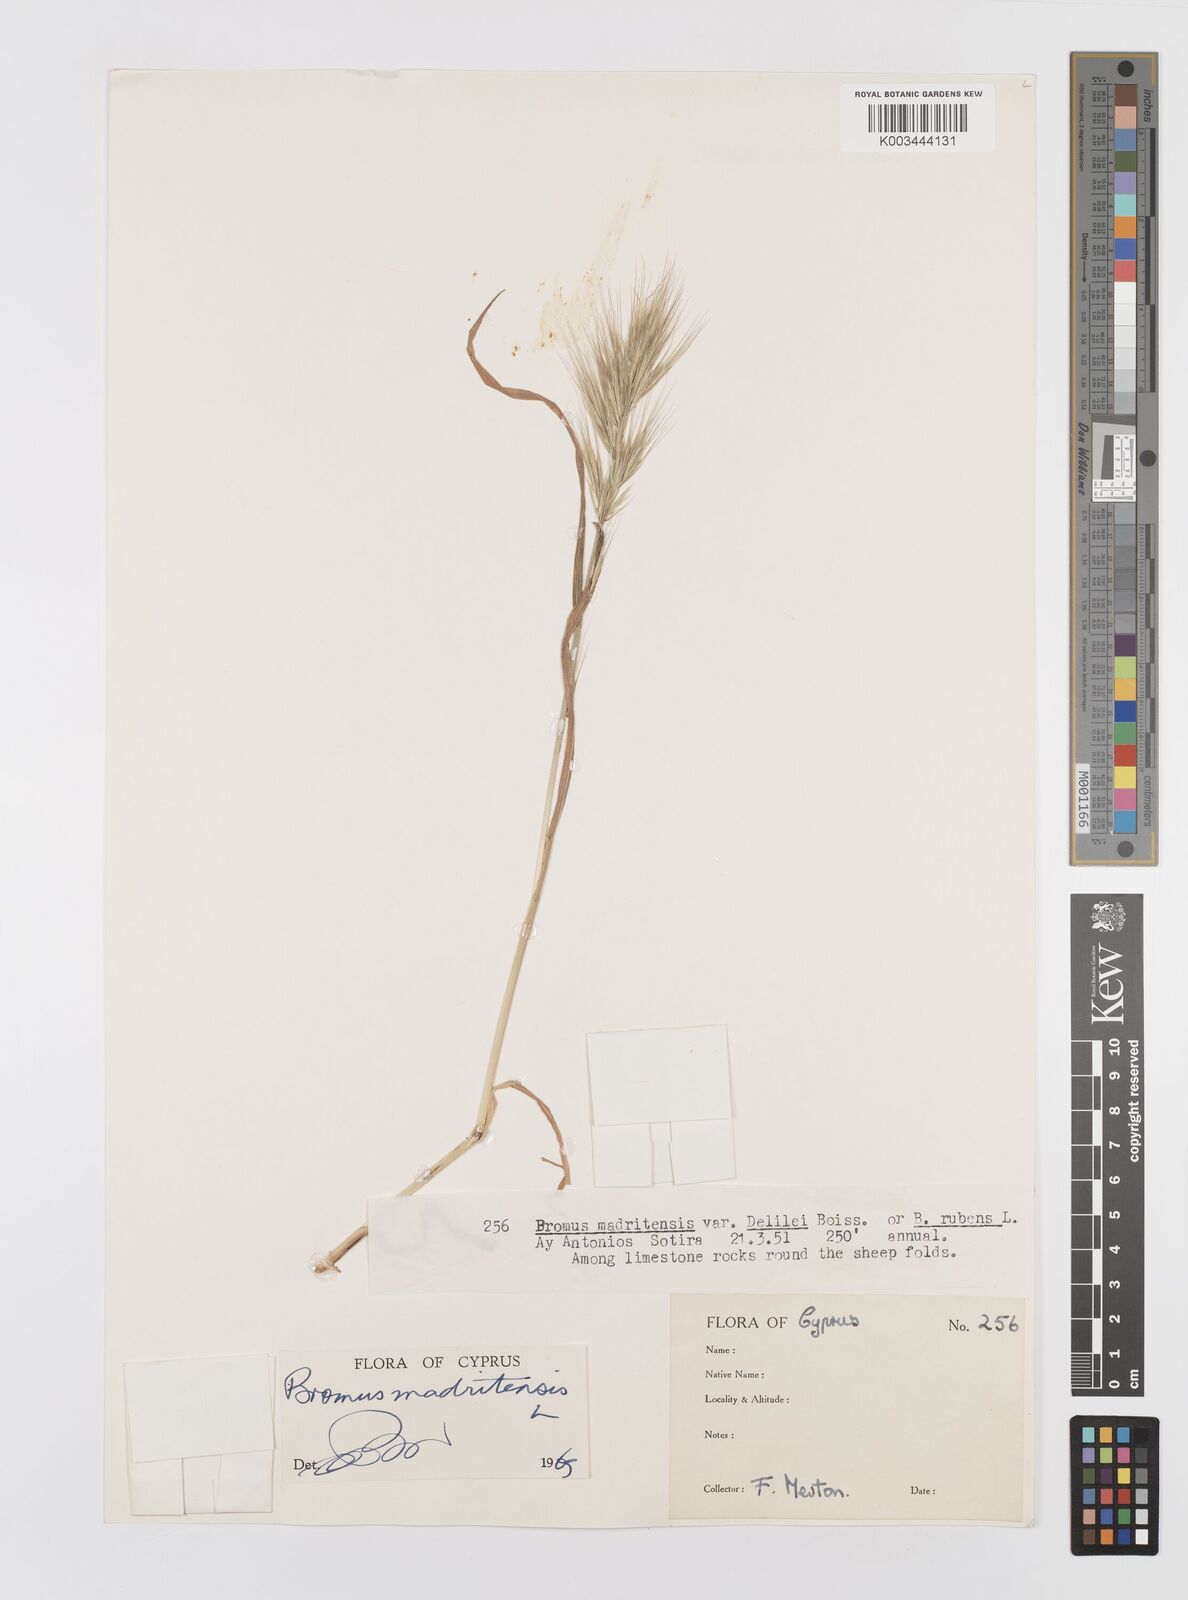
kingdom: Plantae
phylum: Tracheophyta
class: Liliopsida
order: Poales
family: Poaceae
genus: Bromus
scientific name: Bromus madritensis
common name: Compact brome
